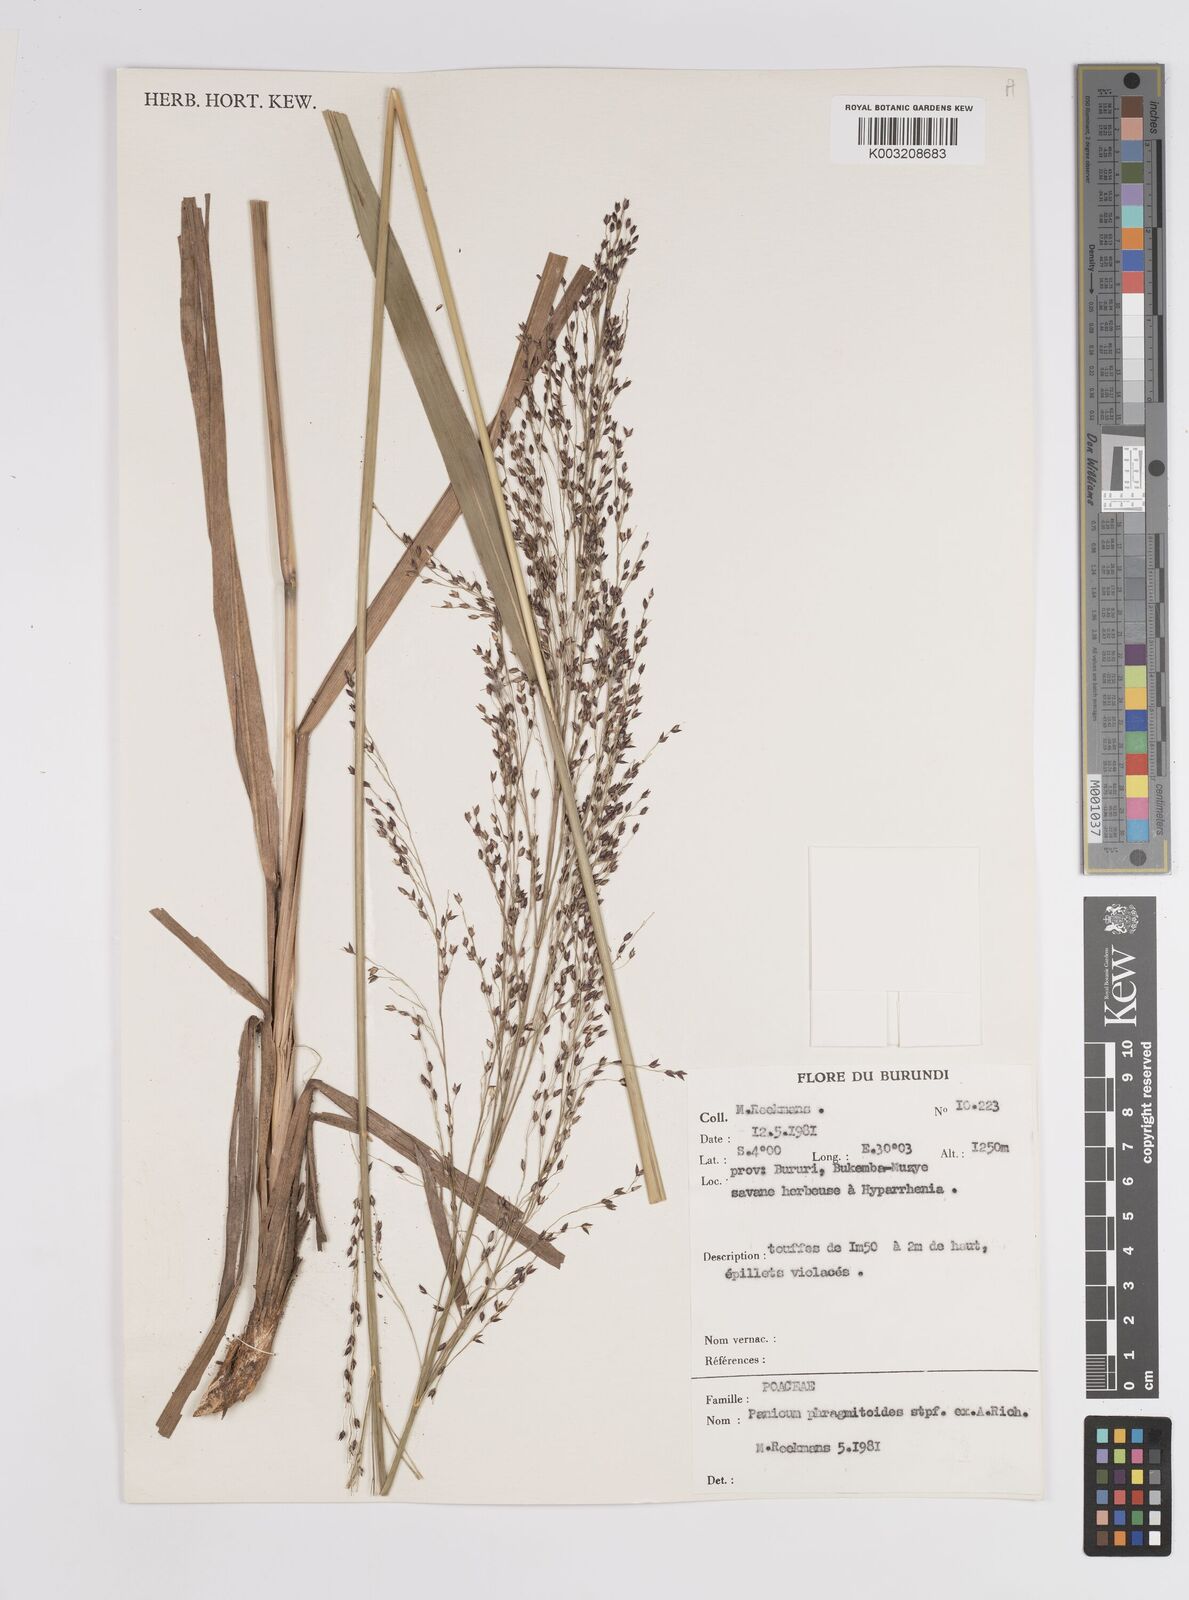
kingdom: Plantae
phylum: Tracheophyta
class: Liliopsida
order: Poales
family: Poaceae
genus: Panicum
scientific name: Panicum phragmitoides
